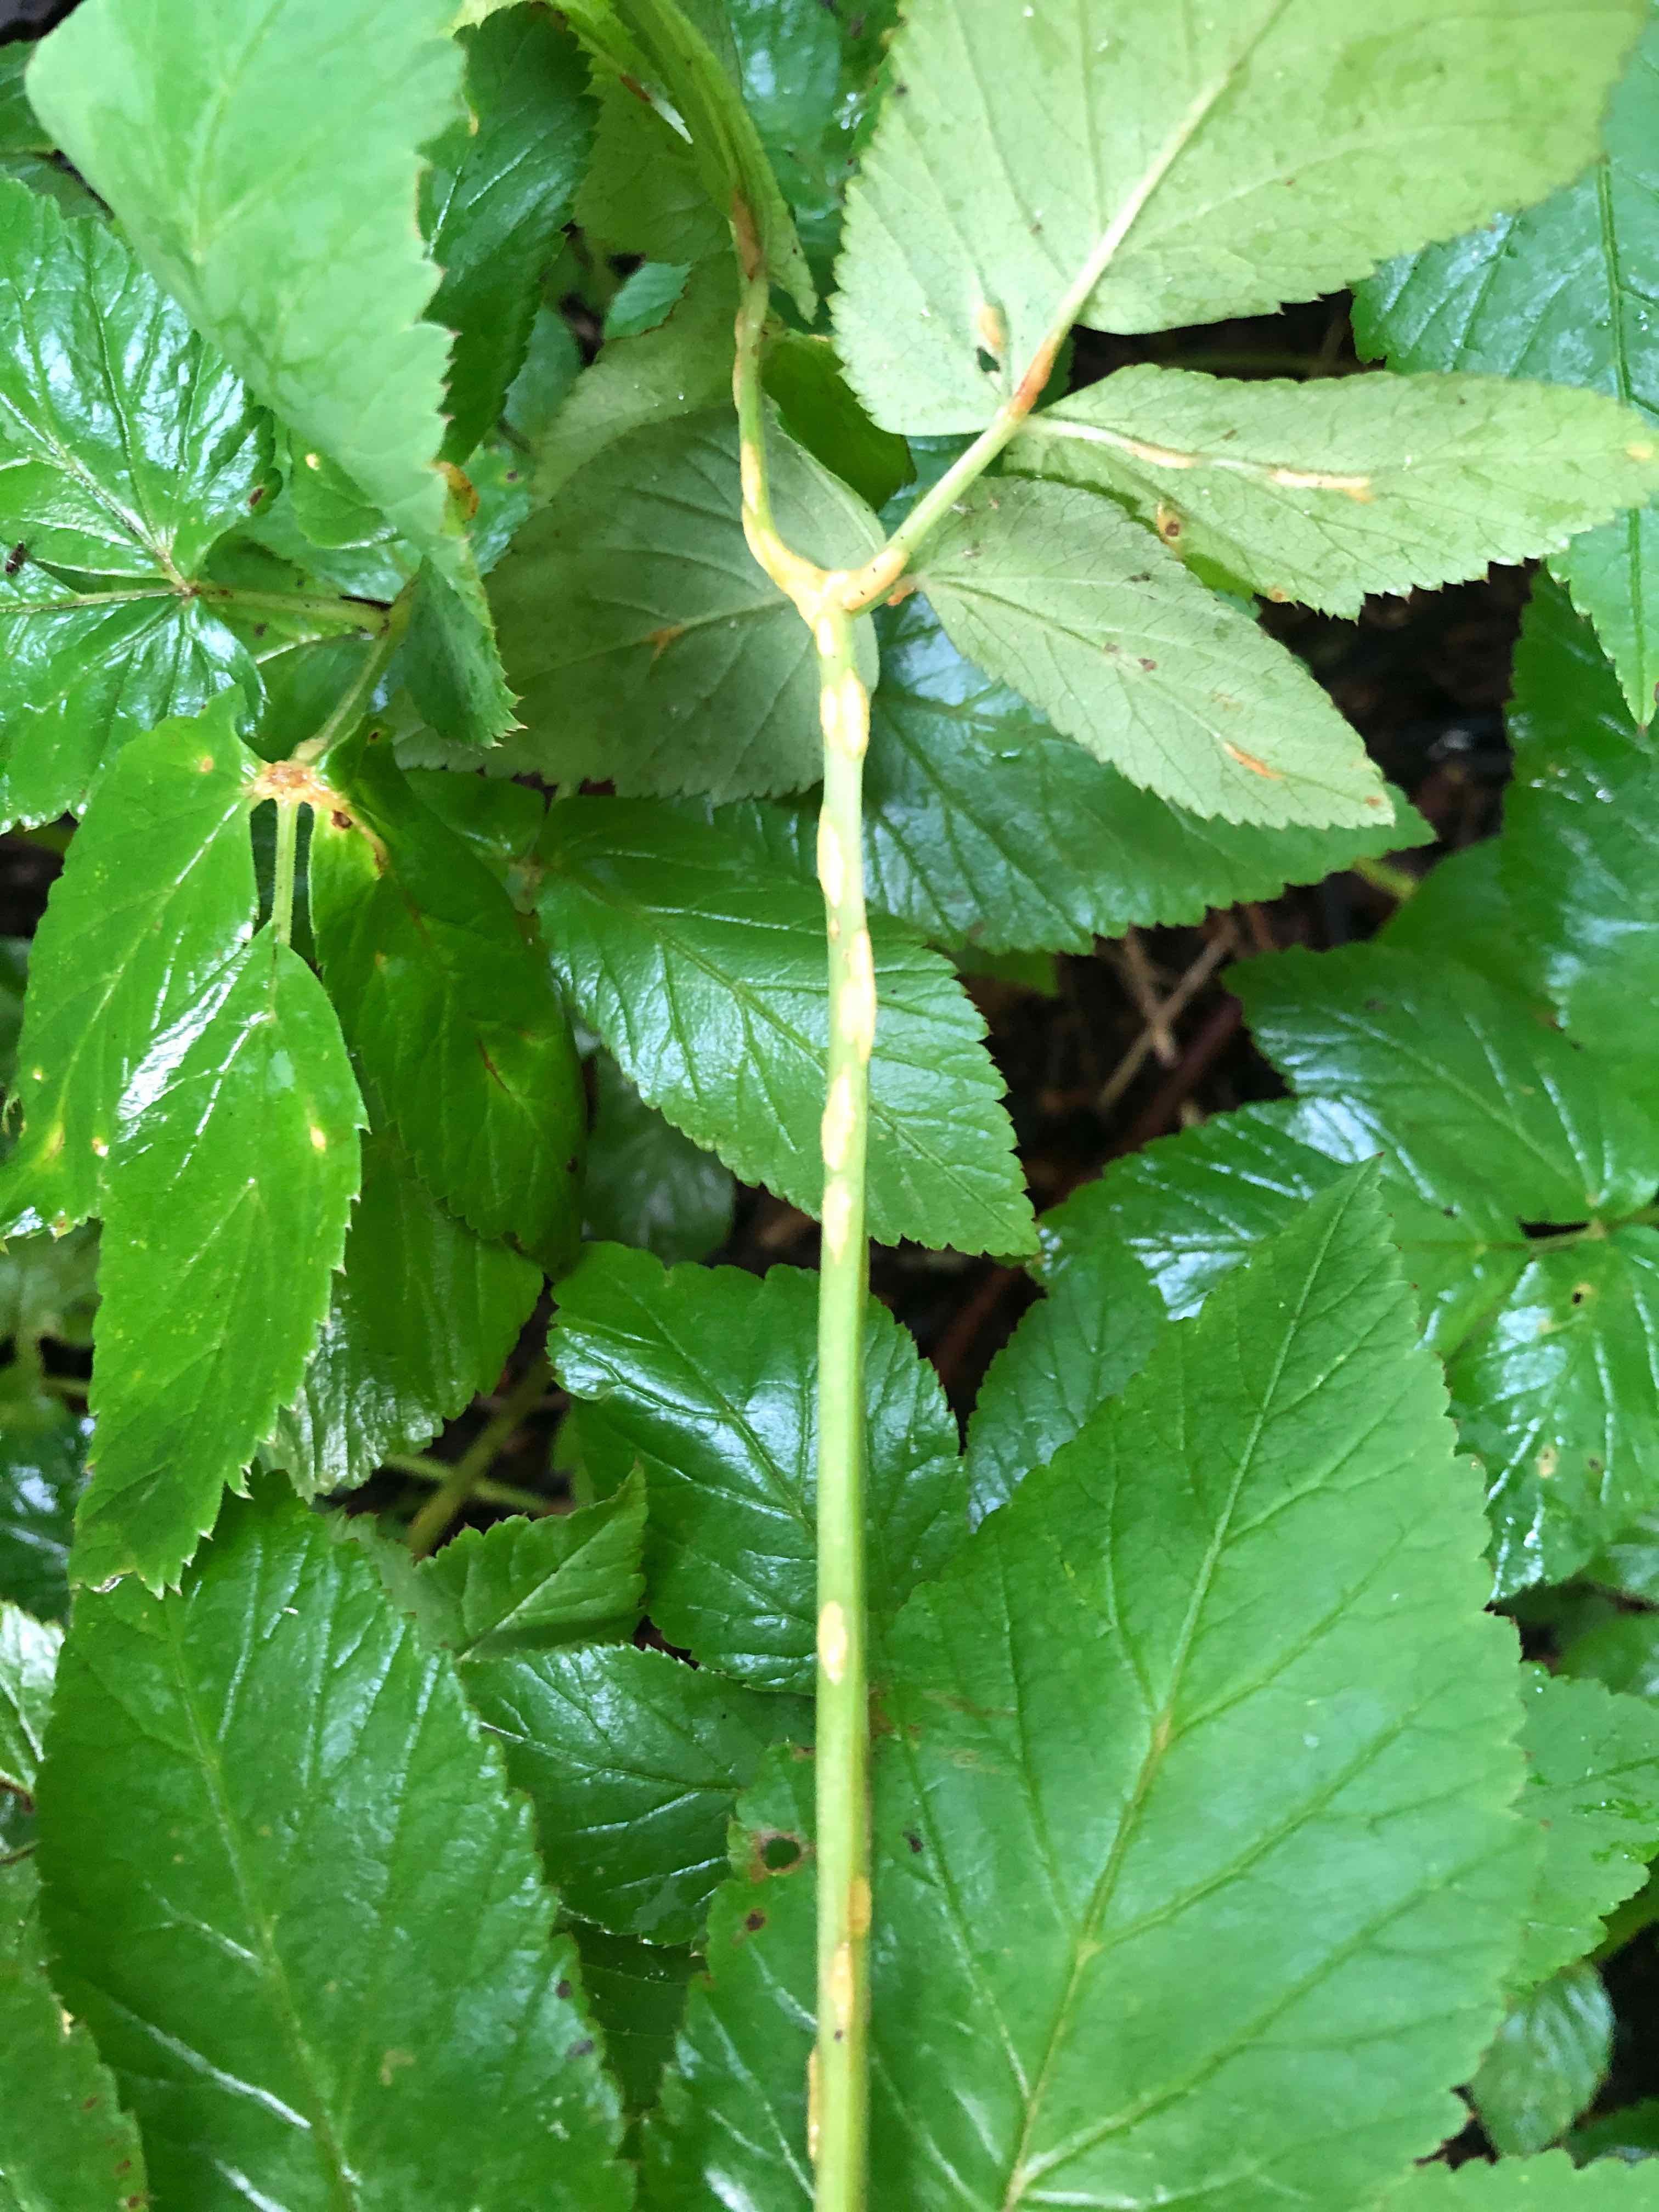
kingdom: Fungi
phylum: Ascomycota
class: Taphrinomycetes
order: Taphrinales
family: Taphrinaceae
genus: Protomyces
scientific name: Protomyces macrosporus
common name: skvalderkål-vablesæk
